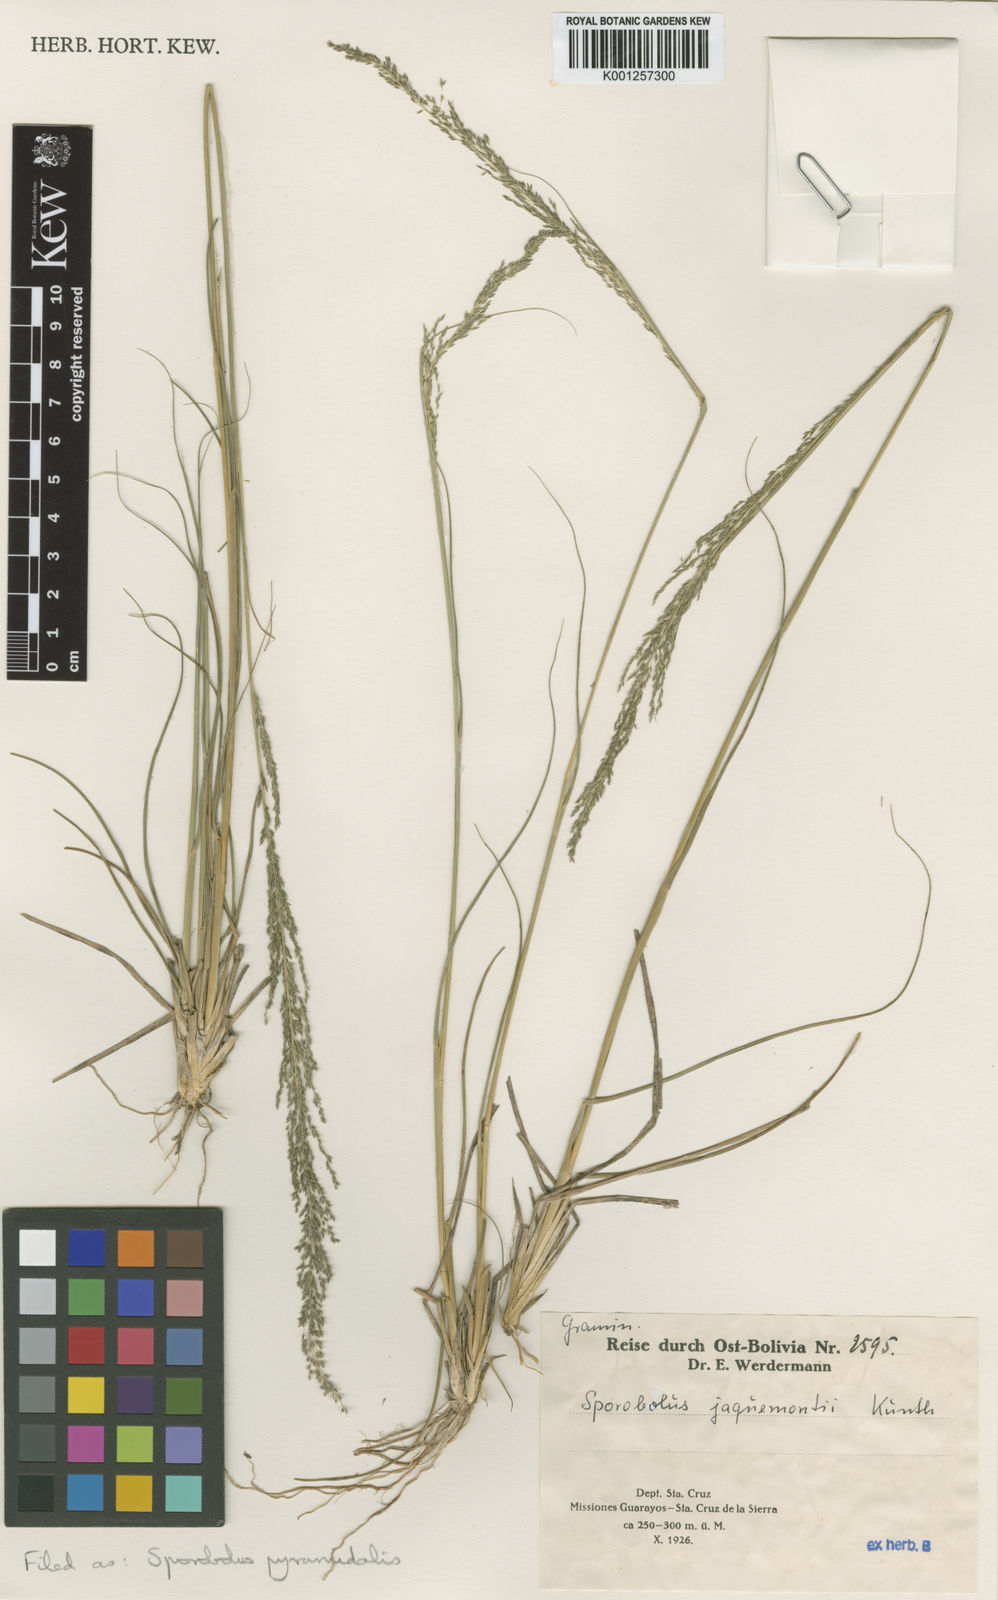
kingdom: Plantae
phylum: Tracheophyta
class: Liliopsida
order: Poales
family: Poaceae
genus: Sporobolus
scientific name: Sporobolus pyramidalis
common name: West indian dropseed
